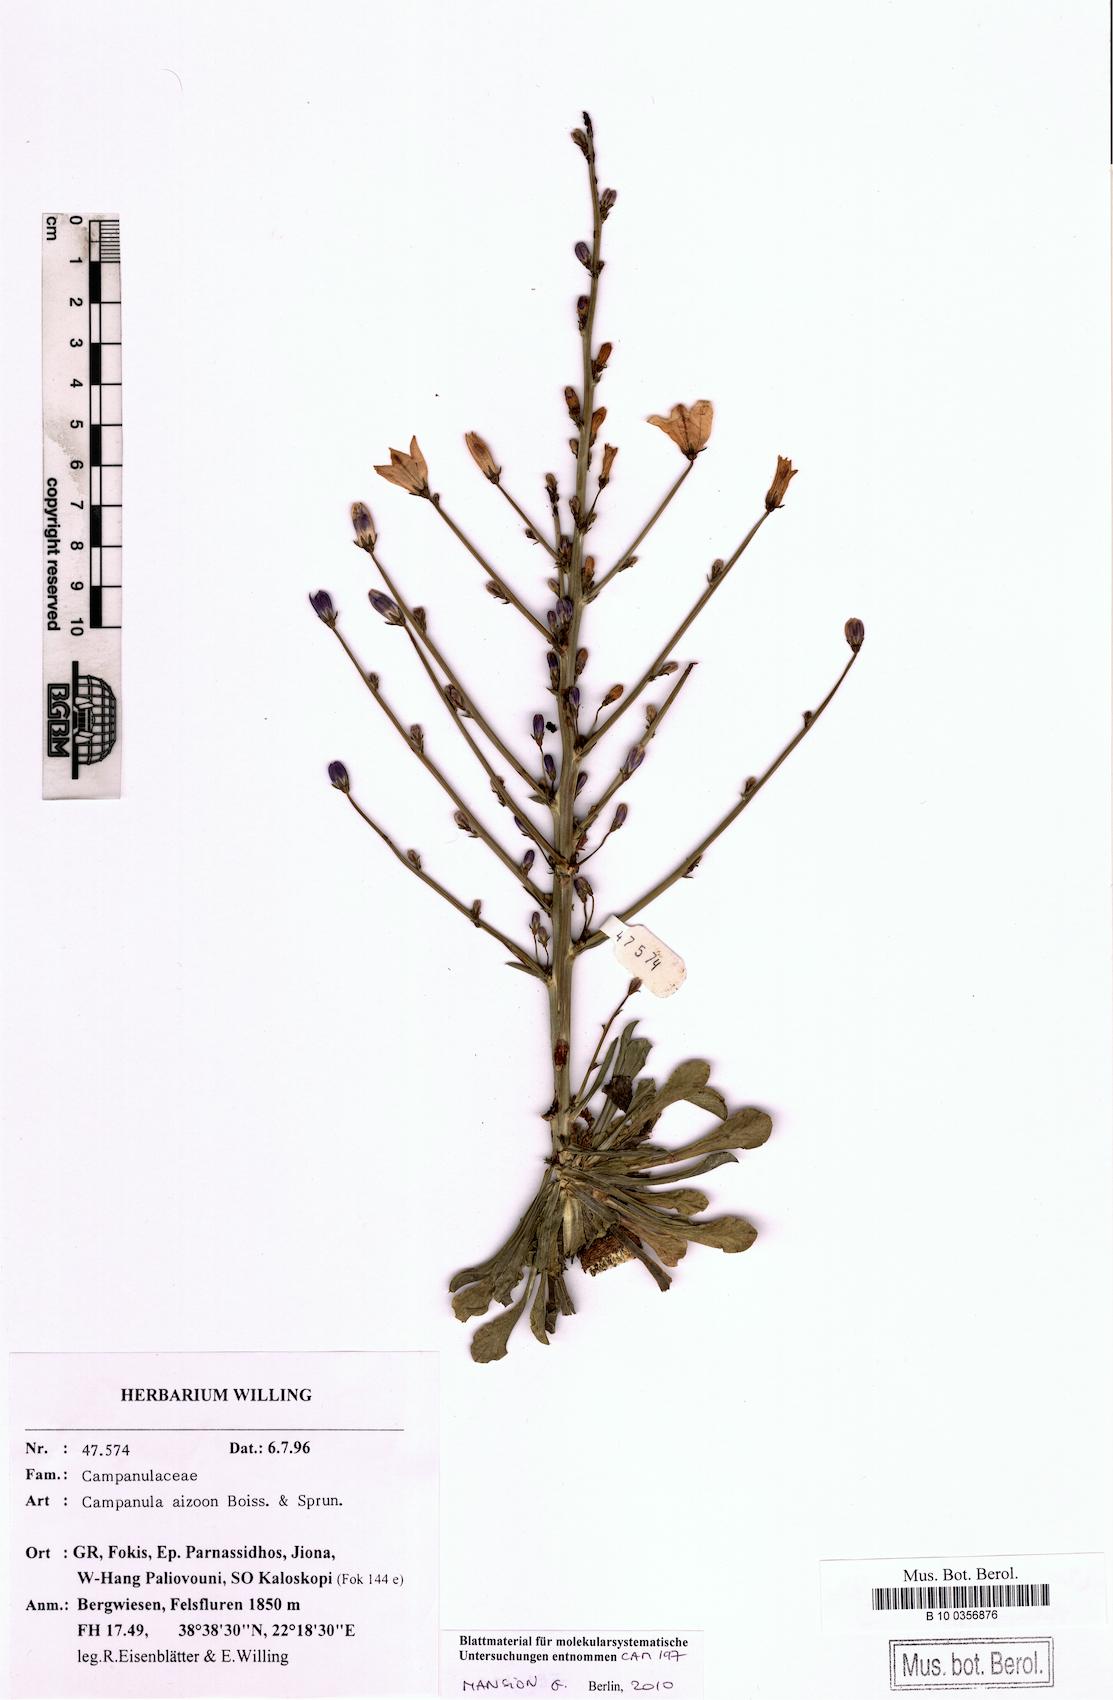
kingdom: Plantae
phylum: Tracheophyta
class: Magnoliopsida
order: Asterales
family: Campanulaceae
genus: Campanula
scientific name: Campanula aizoon
